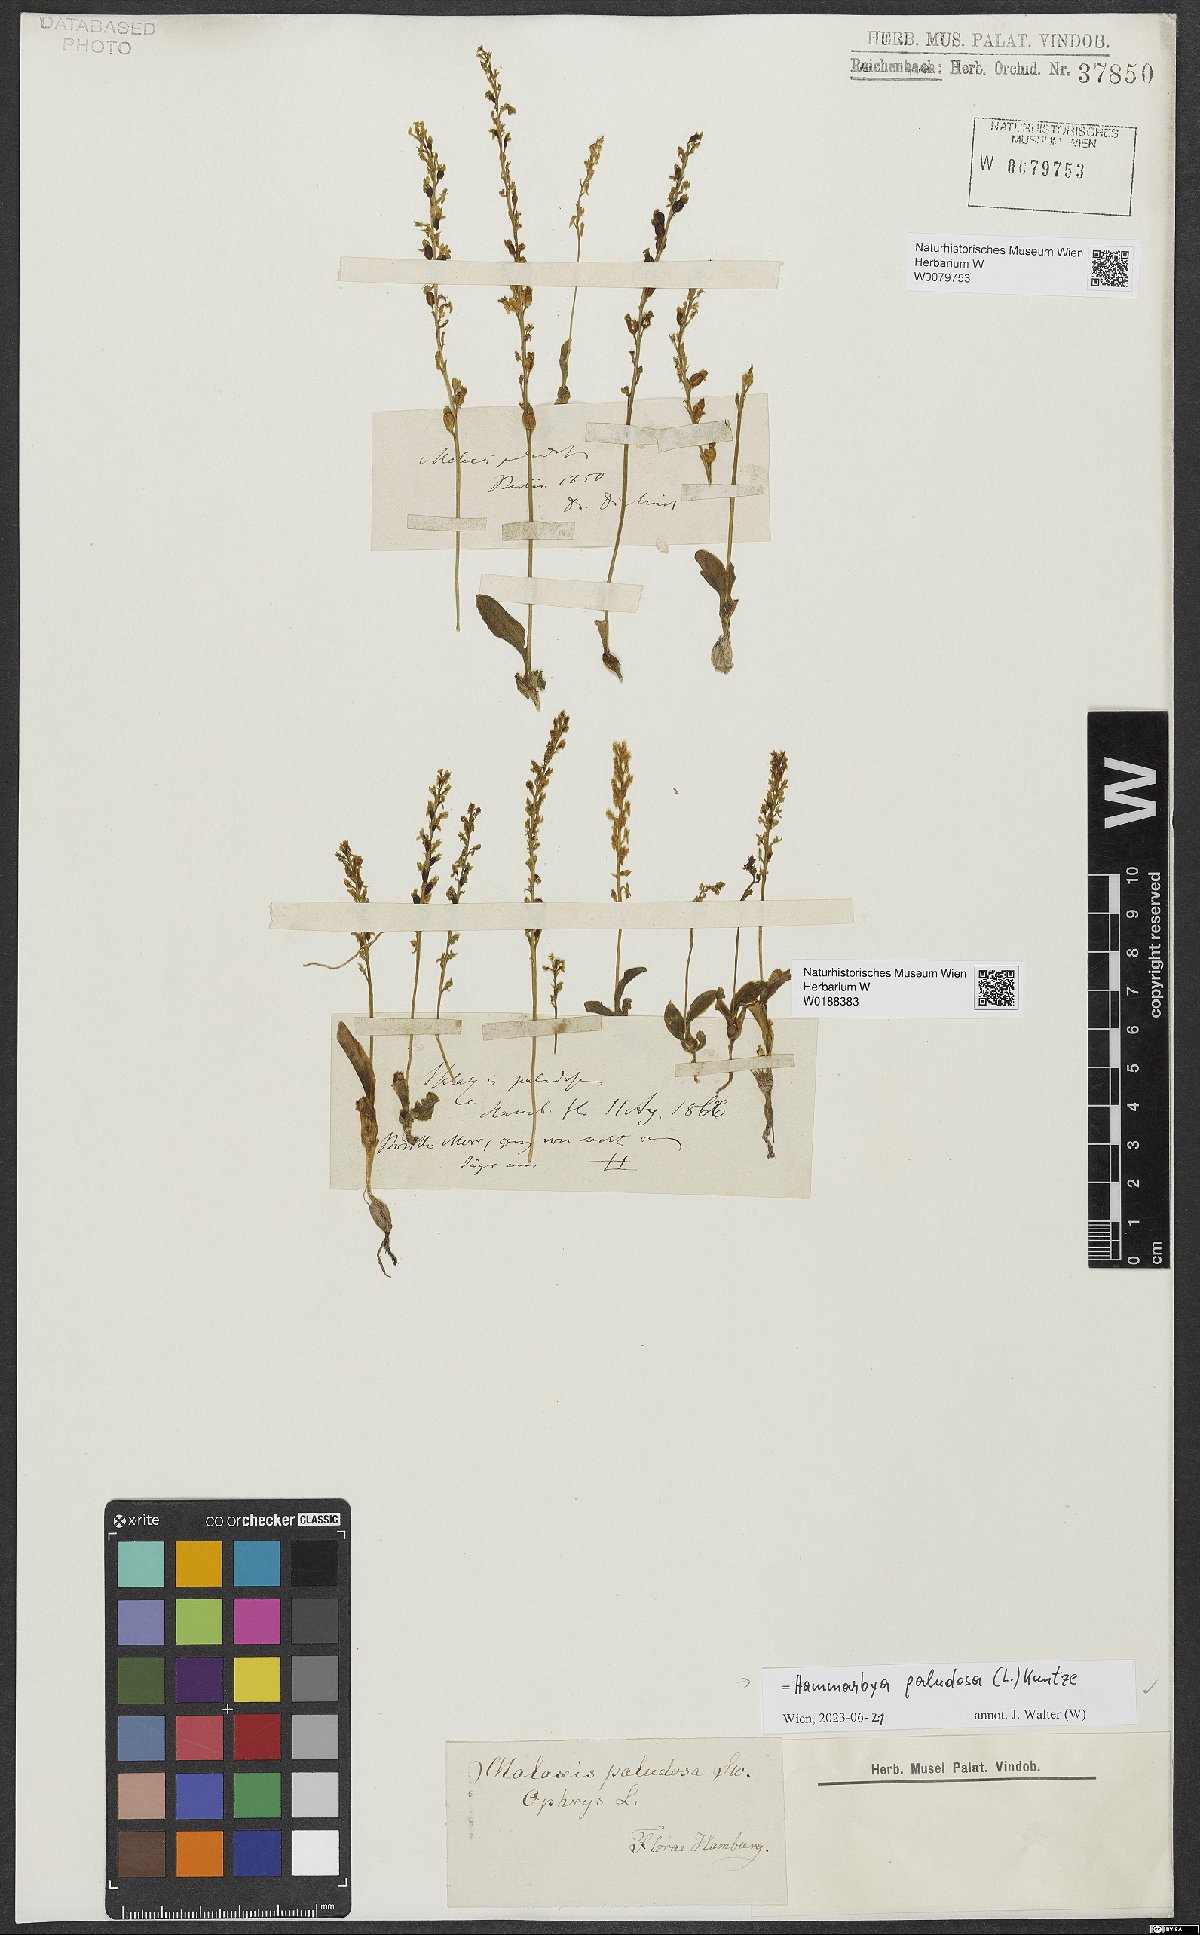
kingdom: Plantae
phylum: Tracheophyta
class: Liliopsida
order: Asparagales
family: Orchidaceae
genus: Hammarbya
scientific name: Hammarbya paludosa
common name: Bog orchid
